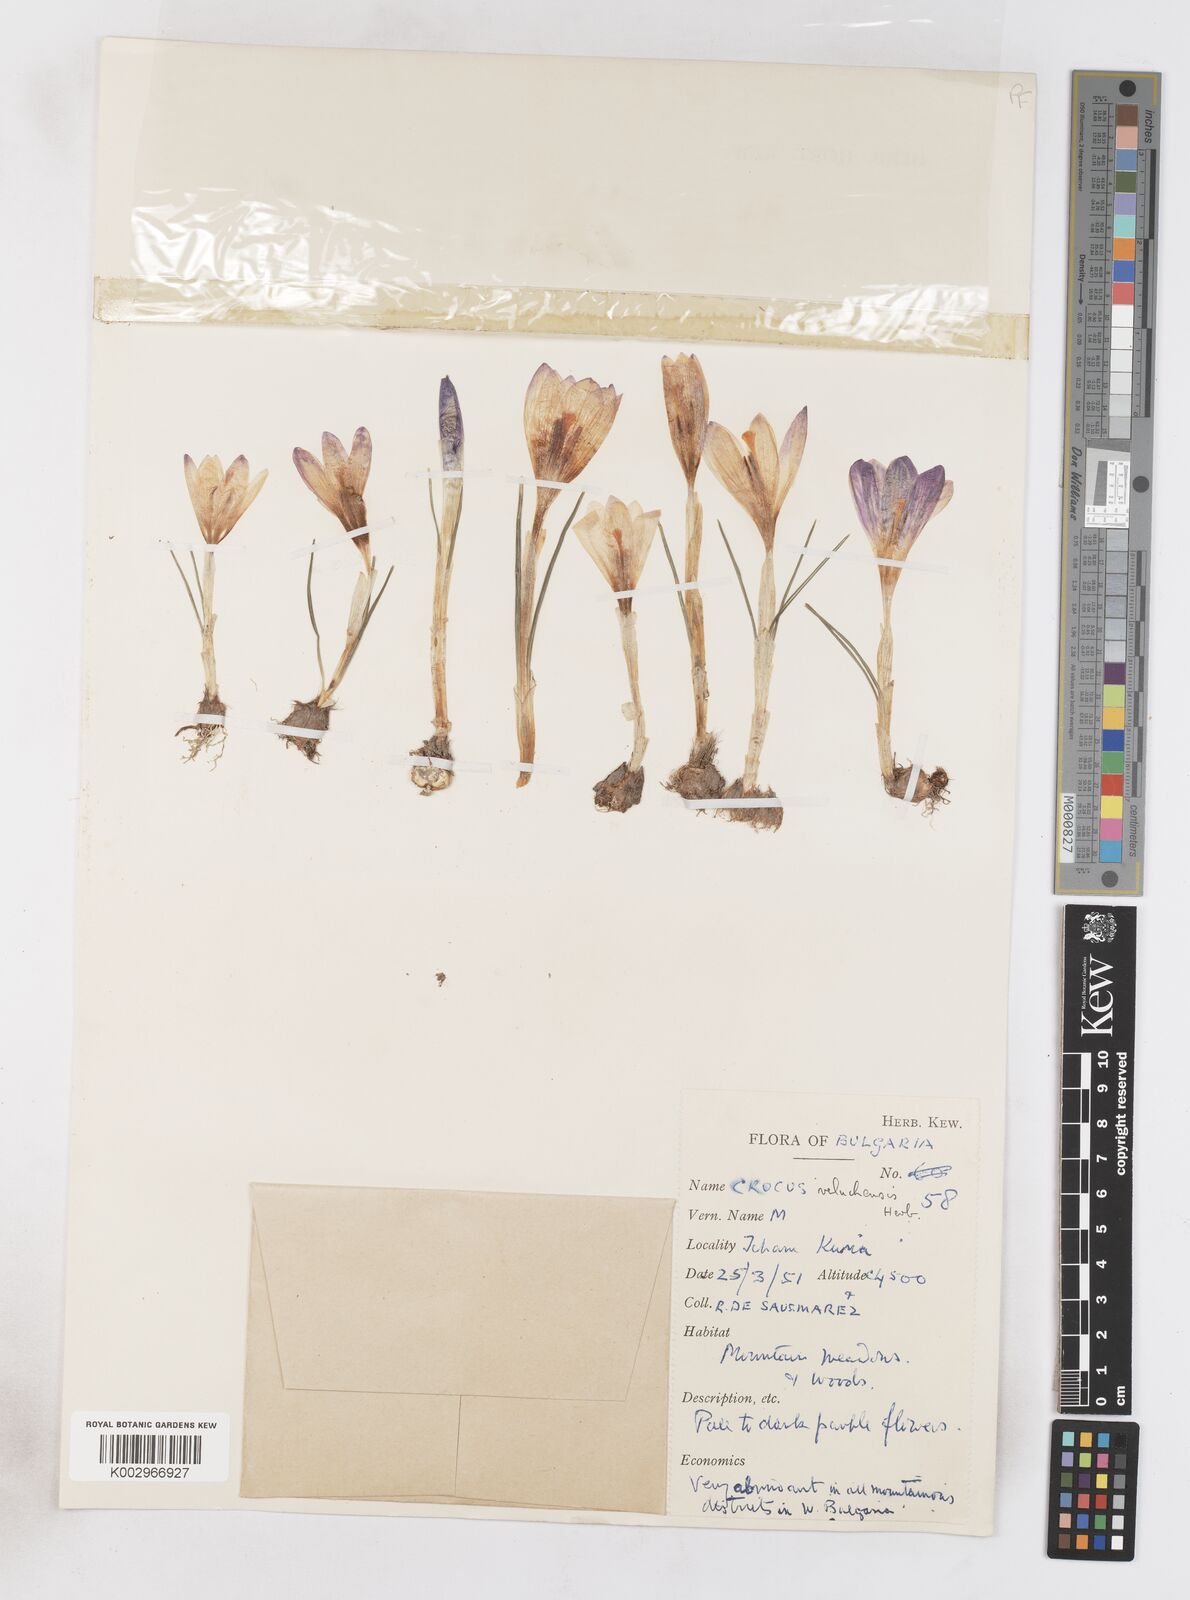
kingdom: Plantae
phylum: Tracheophyta
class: Liliopsida
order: Asparagales
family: Iridaceae
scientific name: Iridaceae
